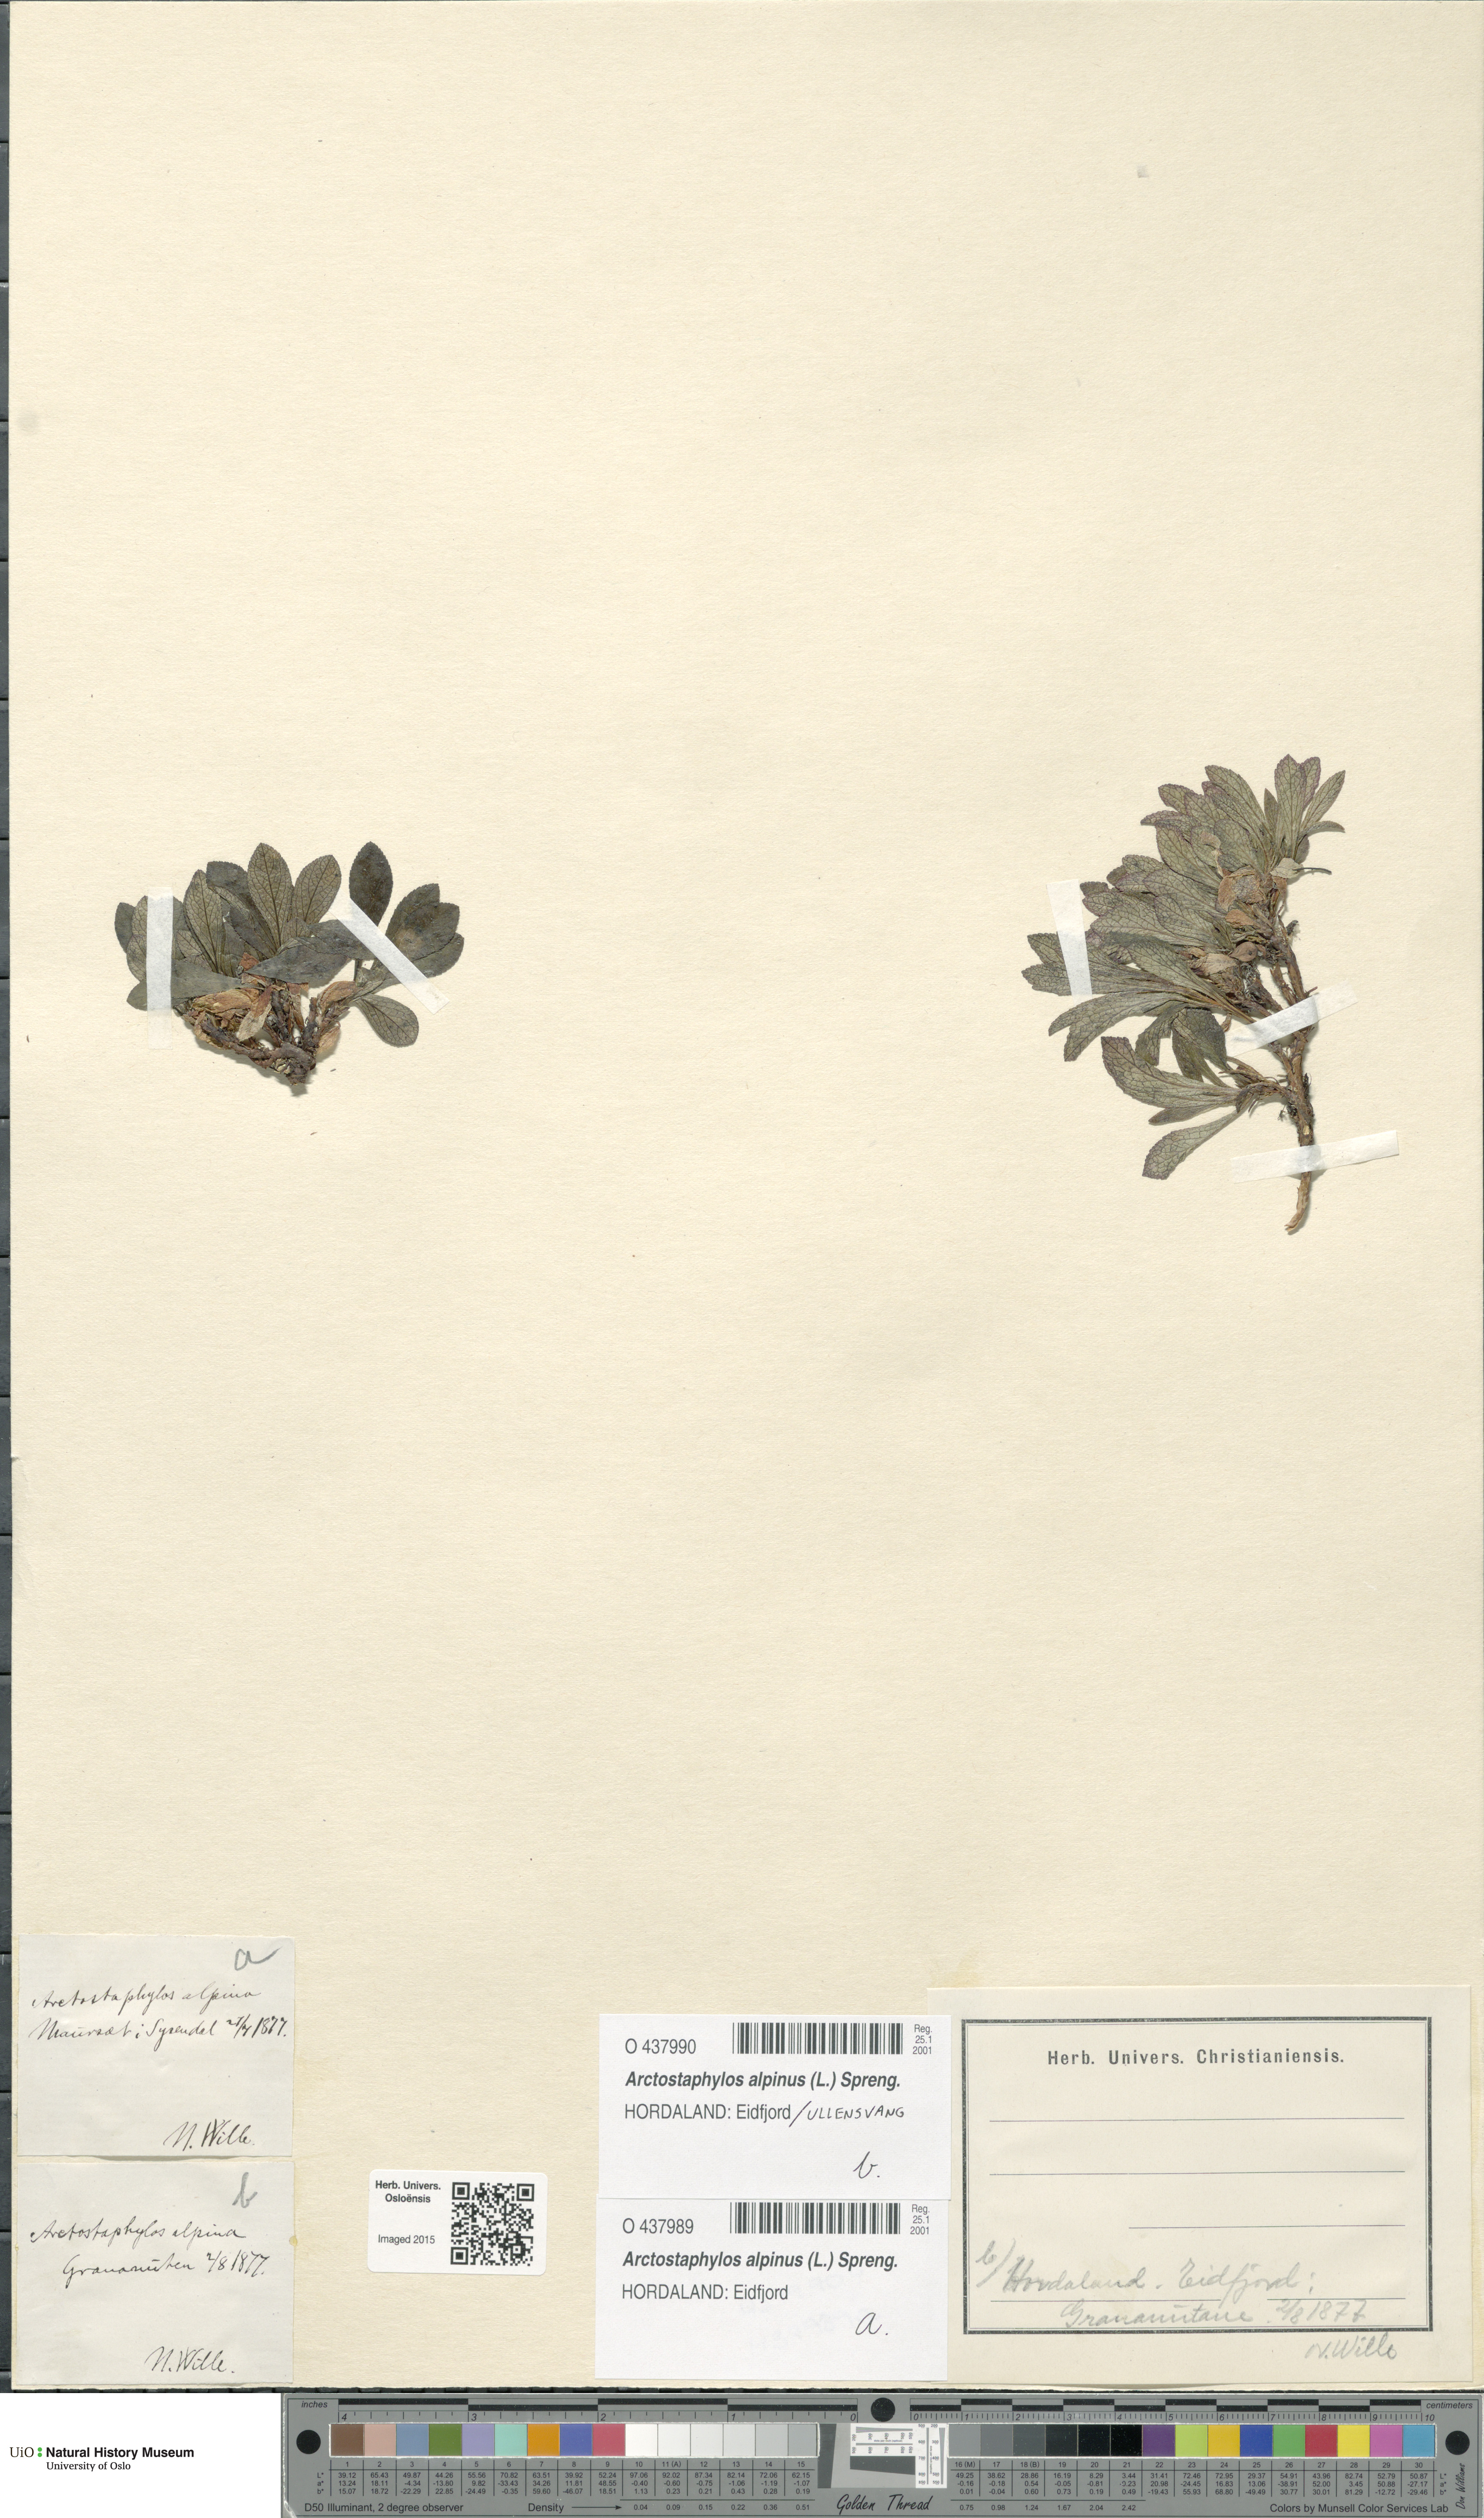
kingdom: Plantae
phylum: Tracheophyta
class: Magnoliopsida
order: Ericales
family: Ericaceae
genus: Arctostaphylos
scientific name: Arctostaphylos alpinus
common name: Alpine bearberry
